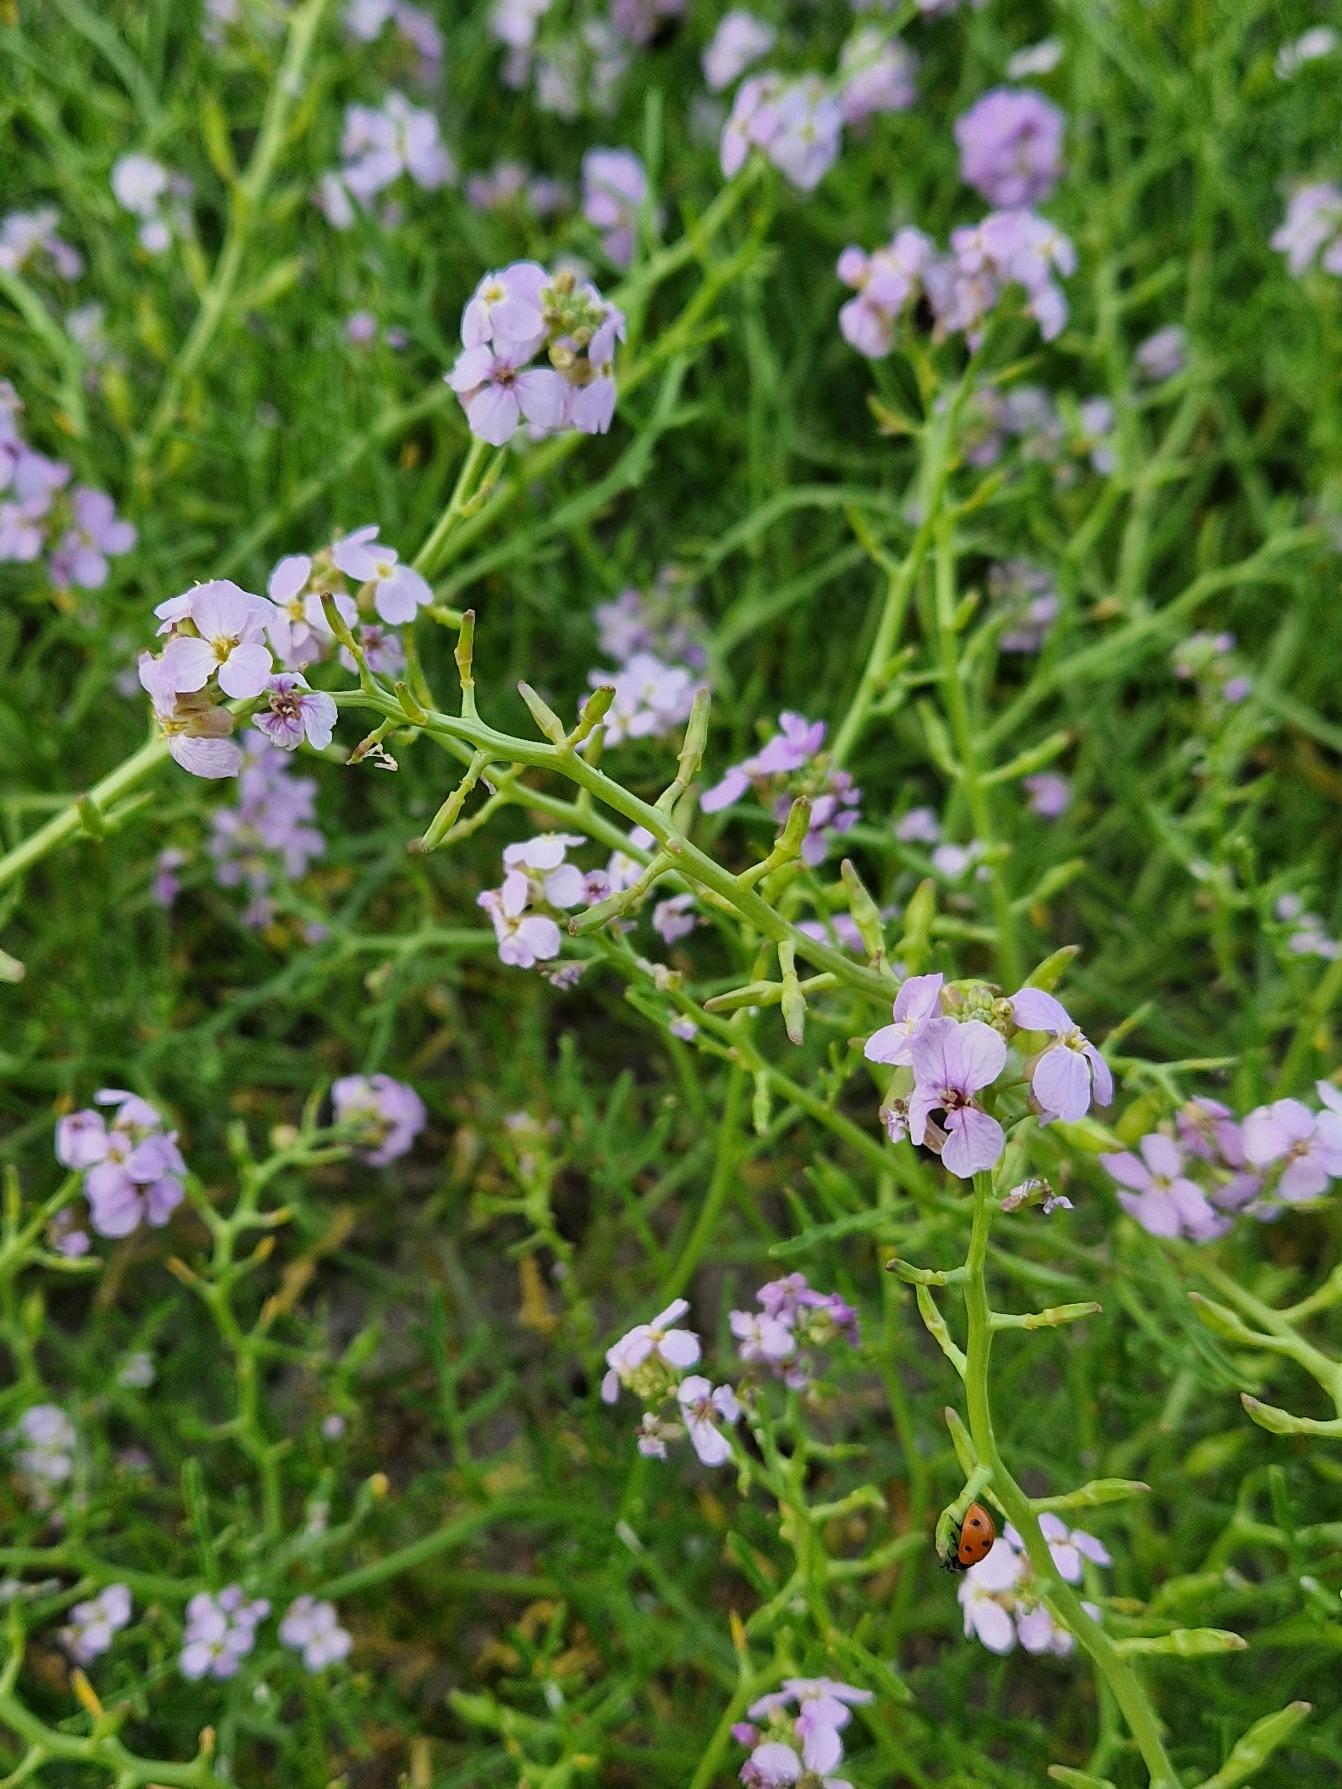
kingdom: Plantae
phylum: Tracheophyta
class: Magnoliopsida
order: Brassicales
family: Brassicaceae
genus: Cakile
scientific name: Cakile maritima
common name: Strandsennep
